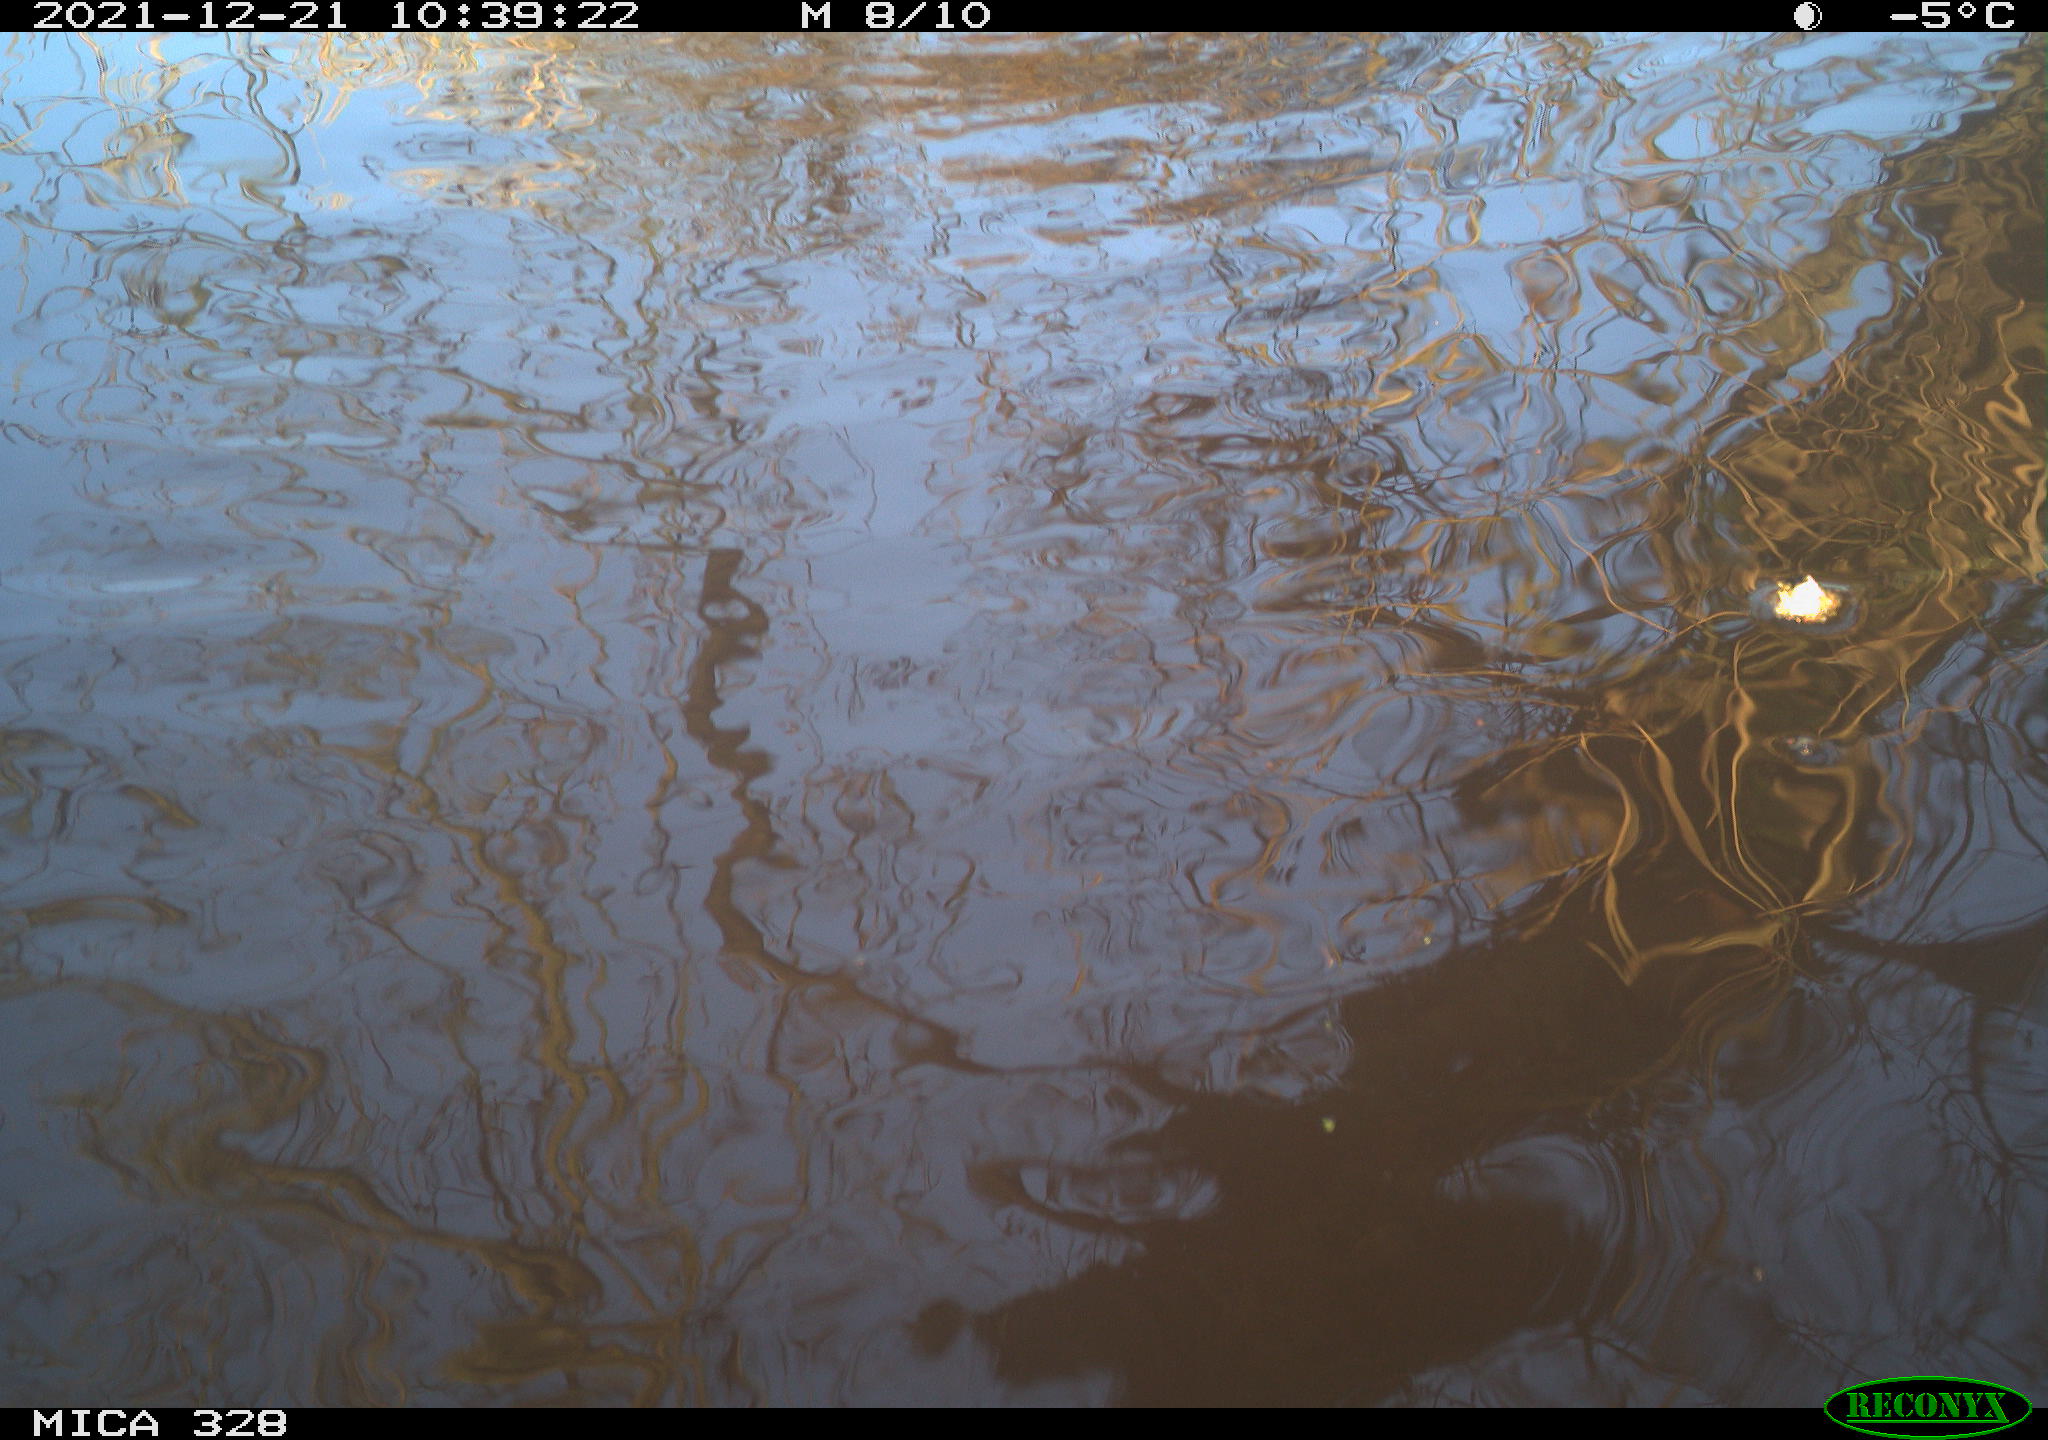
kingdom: Animalia
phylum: Chordata
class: Mammalia
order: Rodentia
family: Cricetidae
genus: Ondatra
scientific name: Ondatra zibethicus
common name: Muskrat
